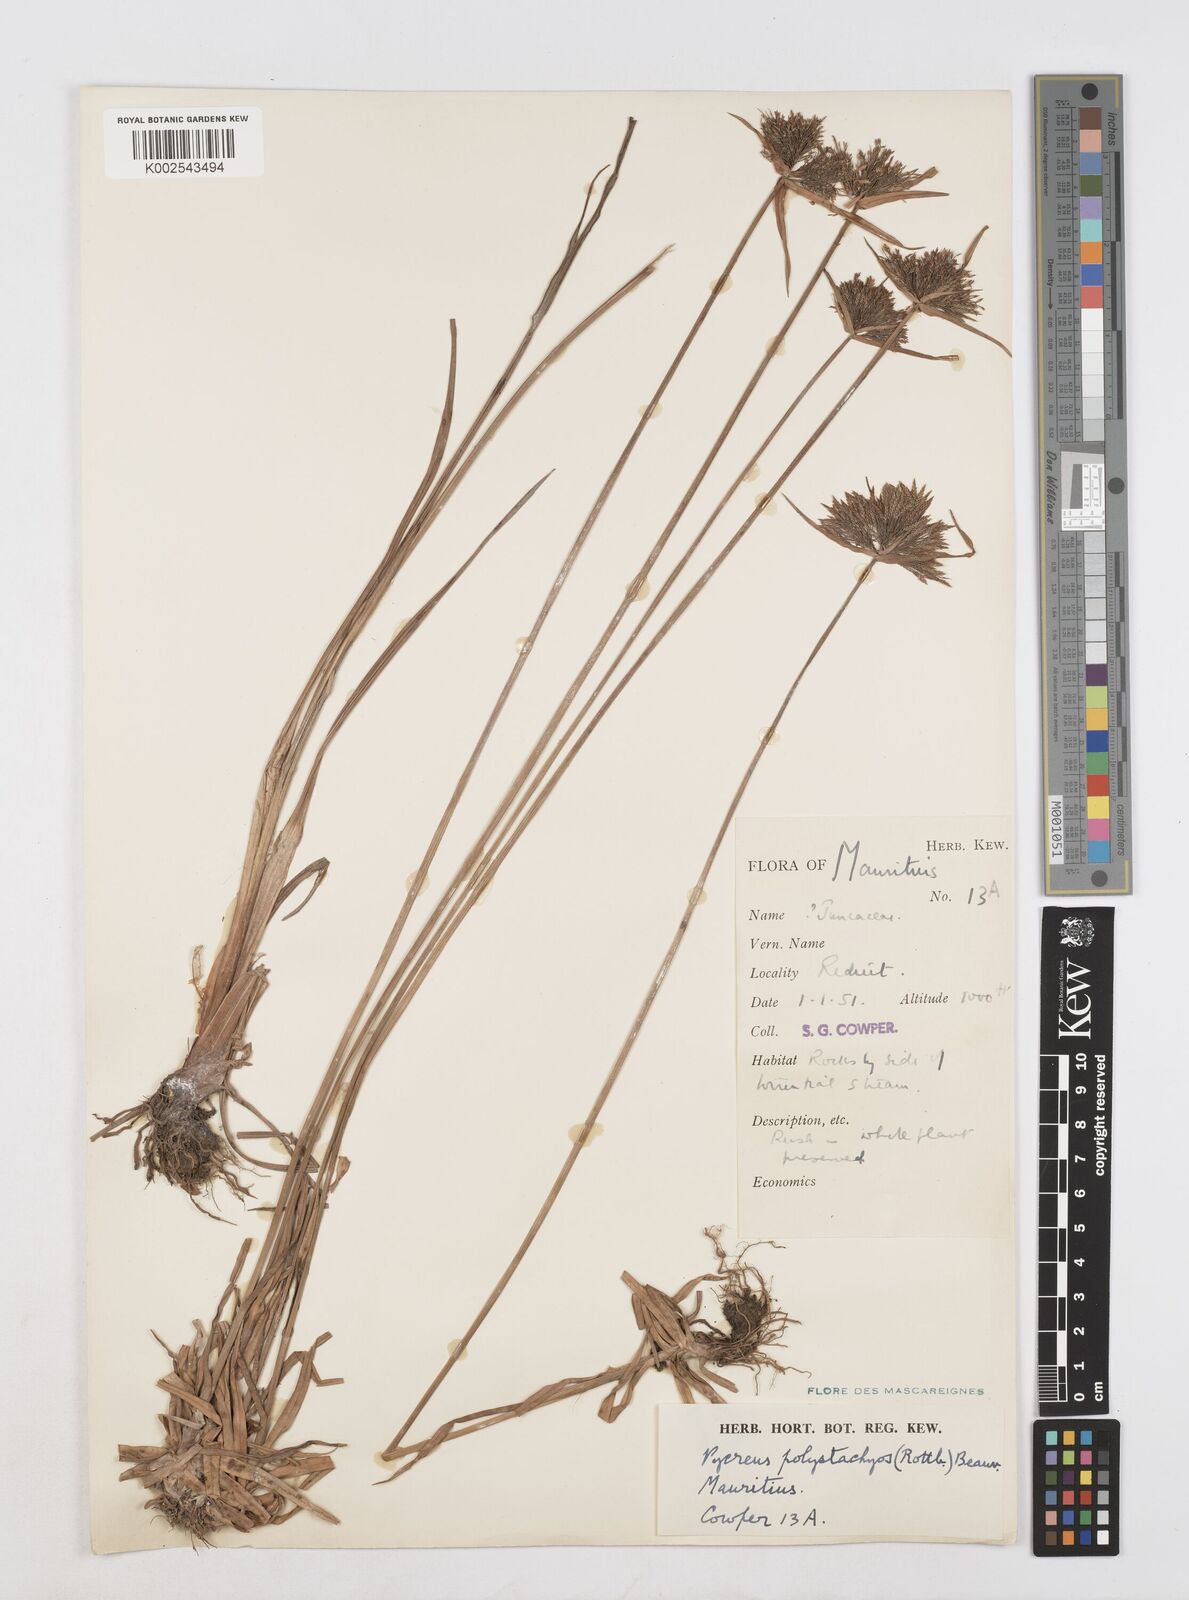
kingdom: Plantae
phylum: Tracheophyta
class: Liliopsida
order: Poales
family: Cyperaceae
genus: Cyperus
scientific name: Cyperus polystachyos
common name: Bunchy flat sedge
